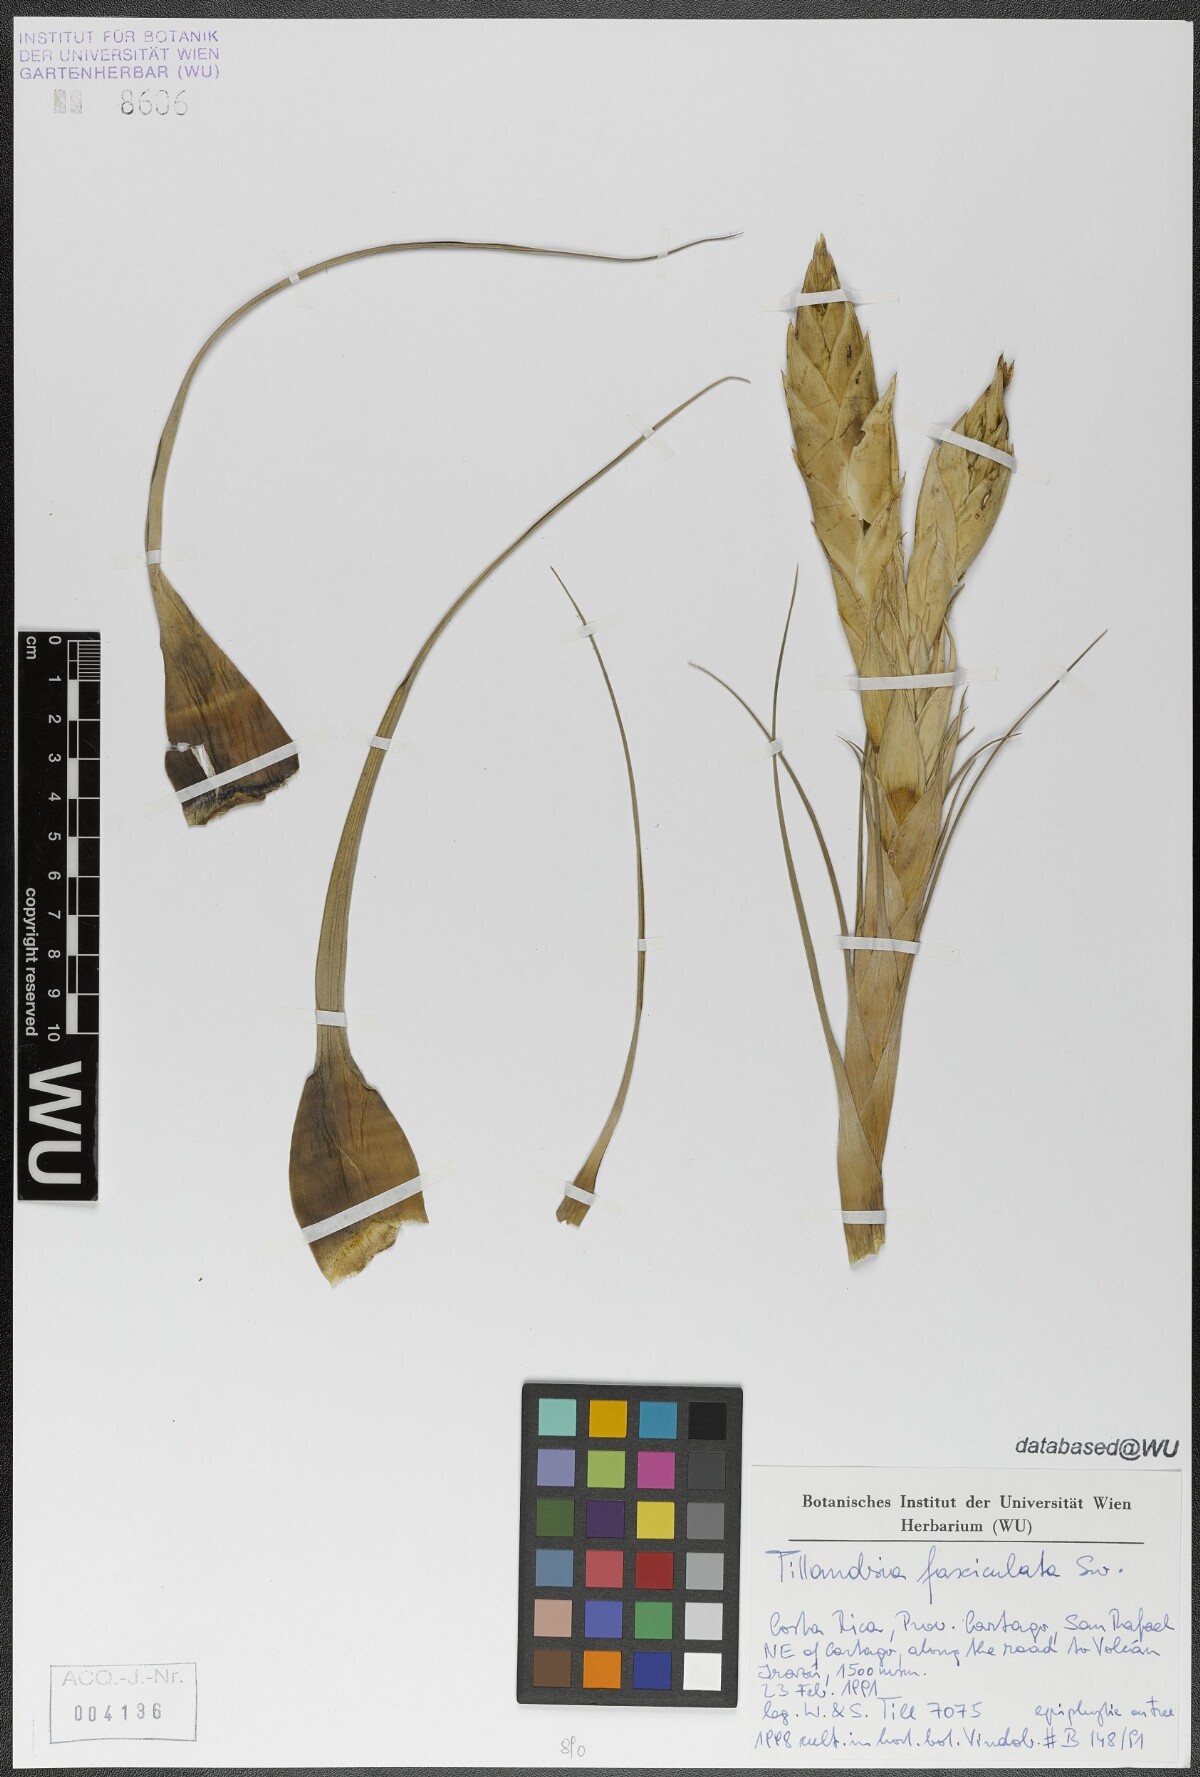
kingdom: Plantae
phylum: Tracheophyta
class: Liliopsida
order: Poales
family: Bromeliaceae
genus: Tillandsia
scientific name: Tillandsia fasciculata
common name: Giant airplant
